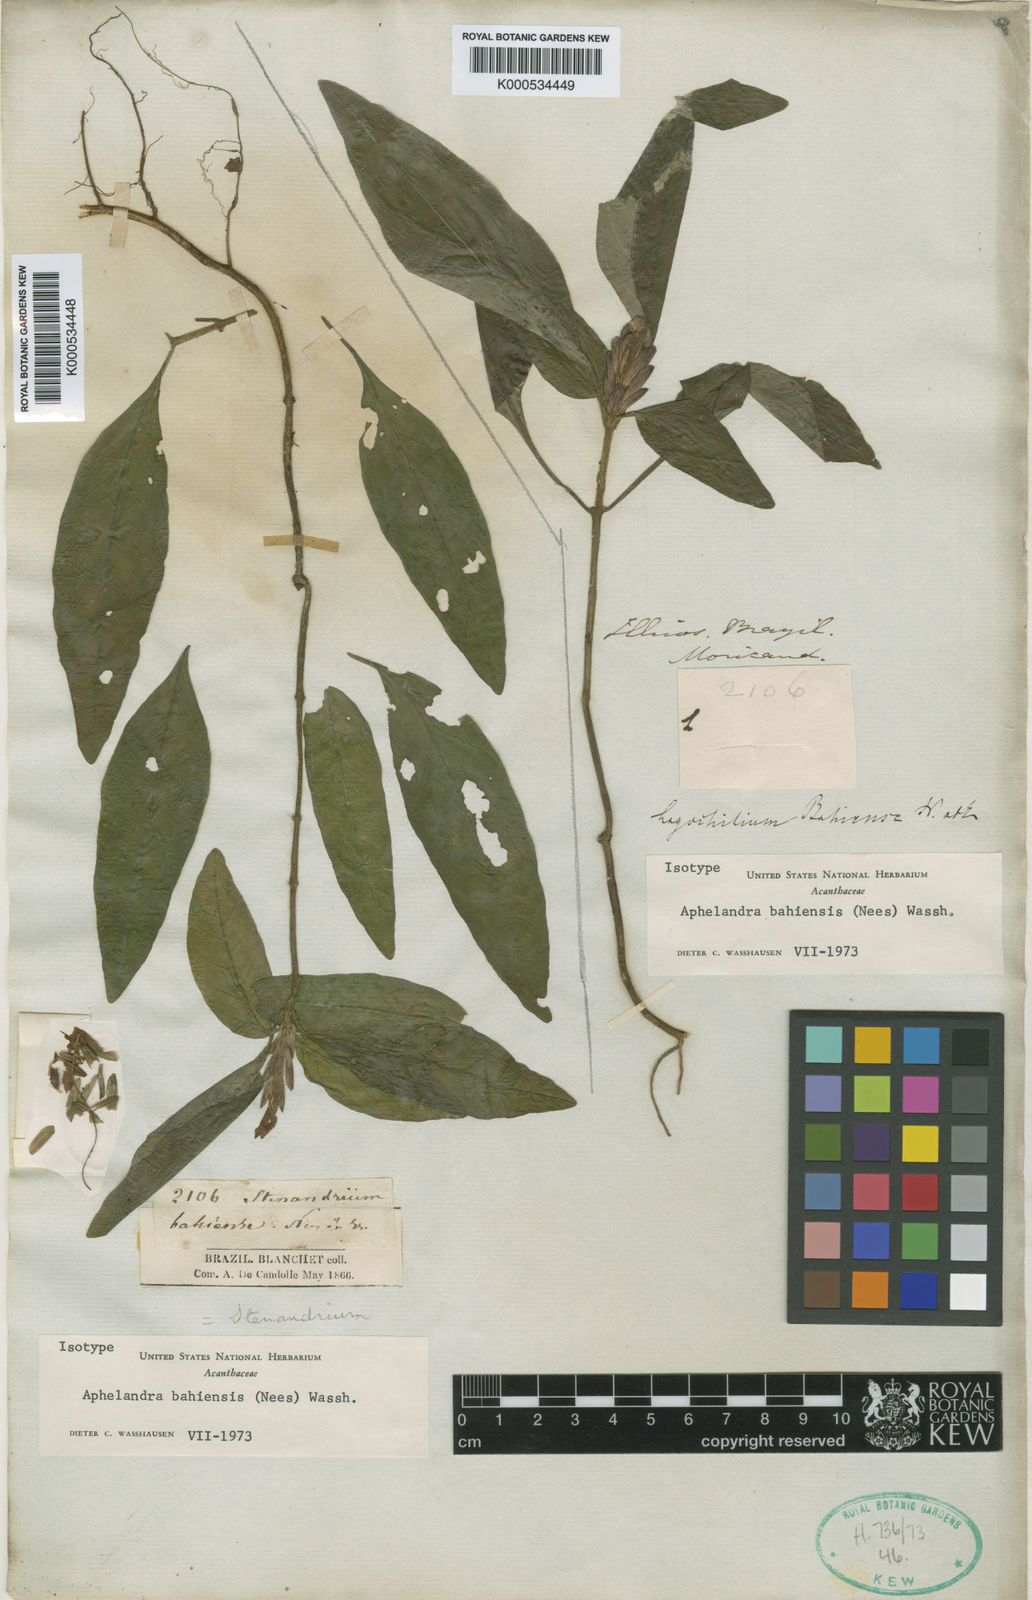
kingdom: Plantae
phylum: Tracheophyta
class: Magnoliopsida
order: Lamiales
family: Acanthaceae
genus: Aphelandra
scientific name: Aphelandra bahiensis
